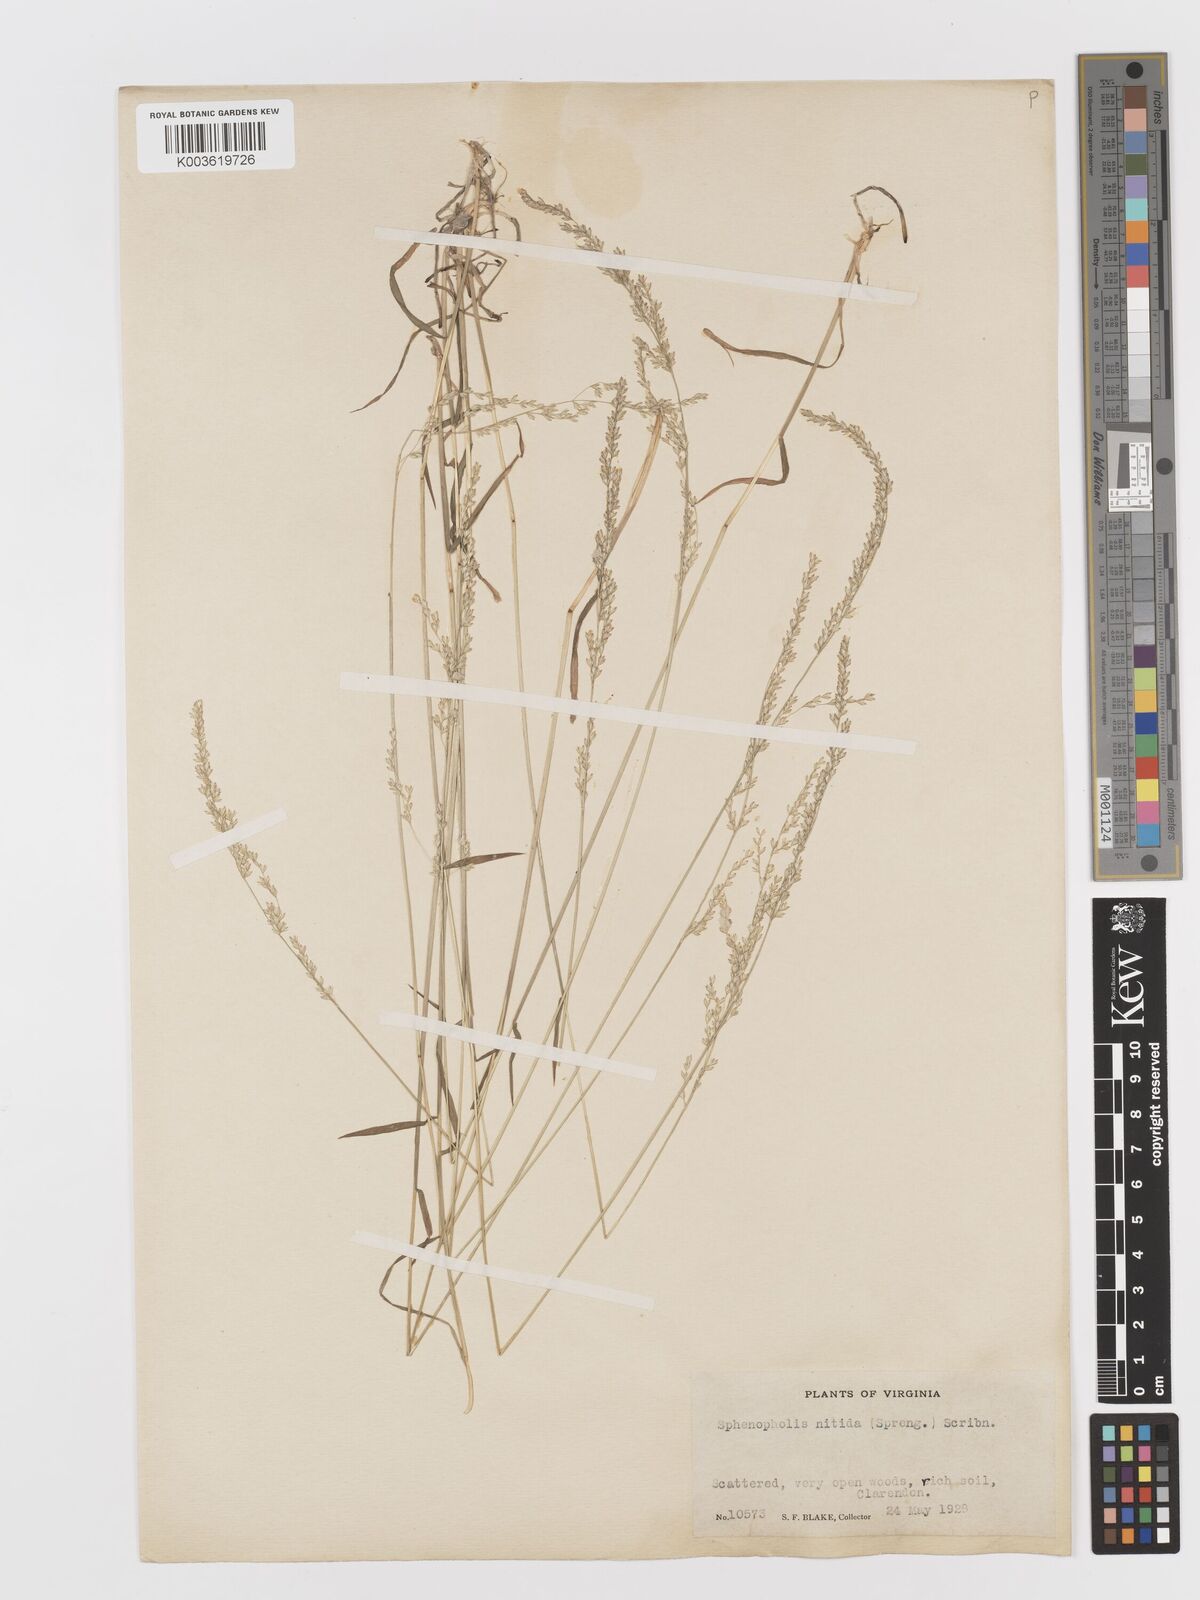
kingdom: Plantae
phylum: Tracheophyta
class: Liliopsida
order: Poales
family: Poaceae
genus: Sphenopholis
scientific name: Sphenopholis nitida
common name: Shiny wedgegrass
